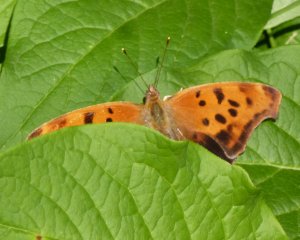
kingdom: Animalia
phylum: Arthropoda
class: Insecta
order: Lepidoptera
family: Nymphalidae
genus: Polygonia
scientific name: Polygonia interrogationis
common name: Question Mark
